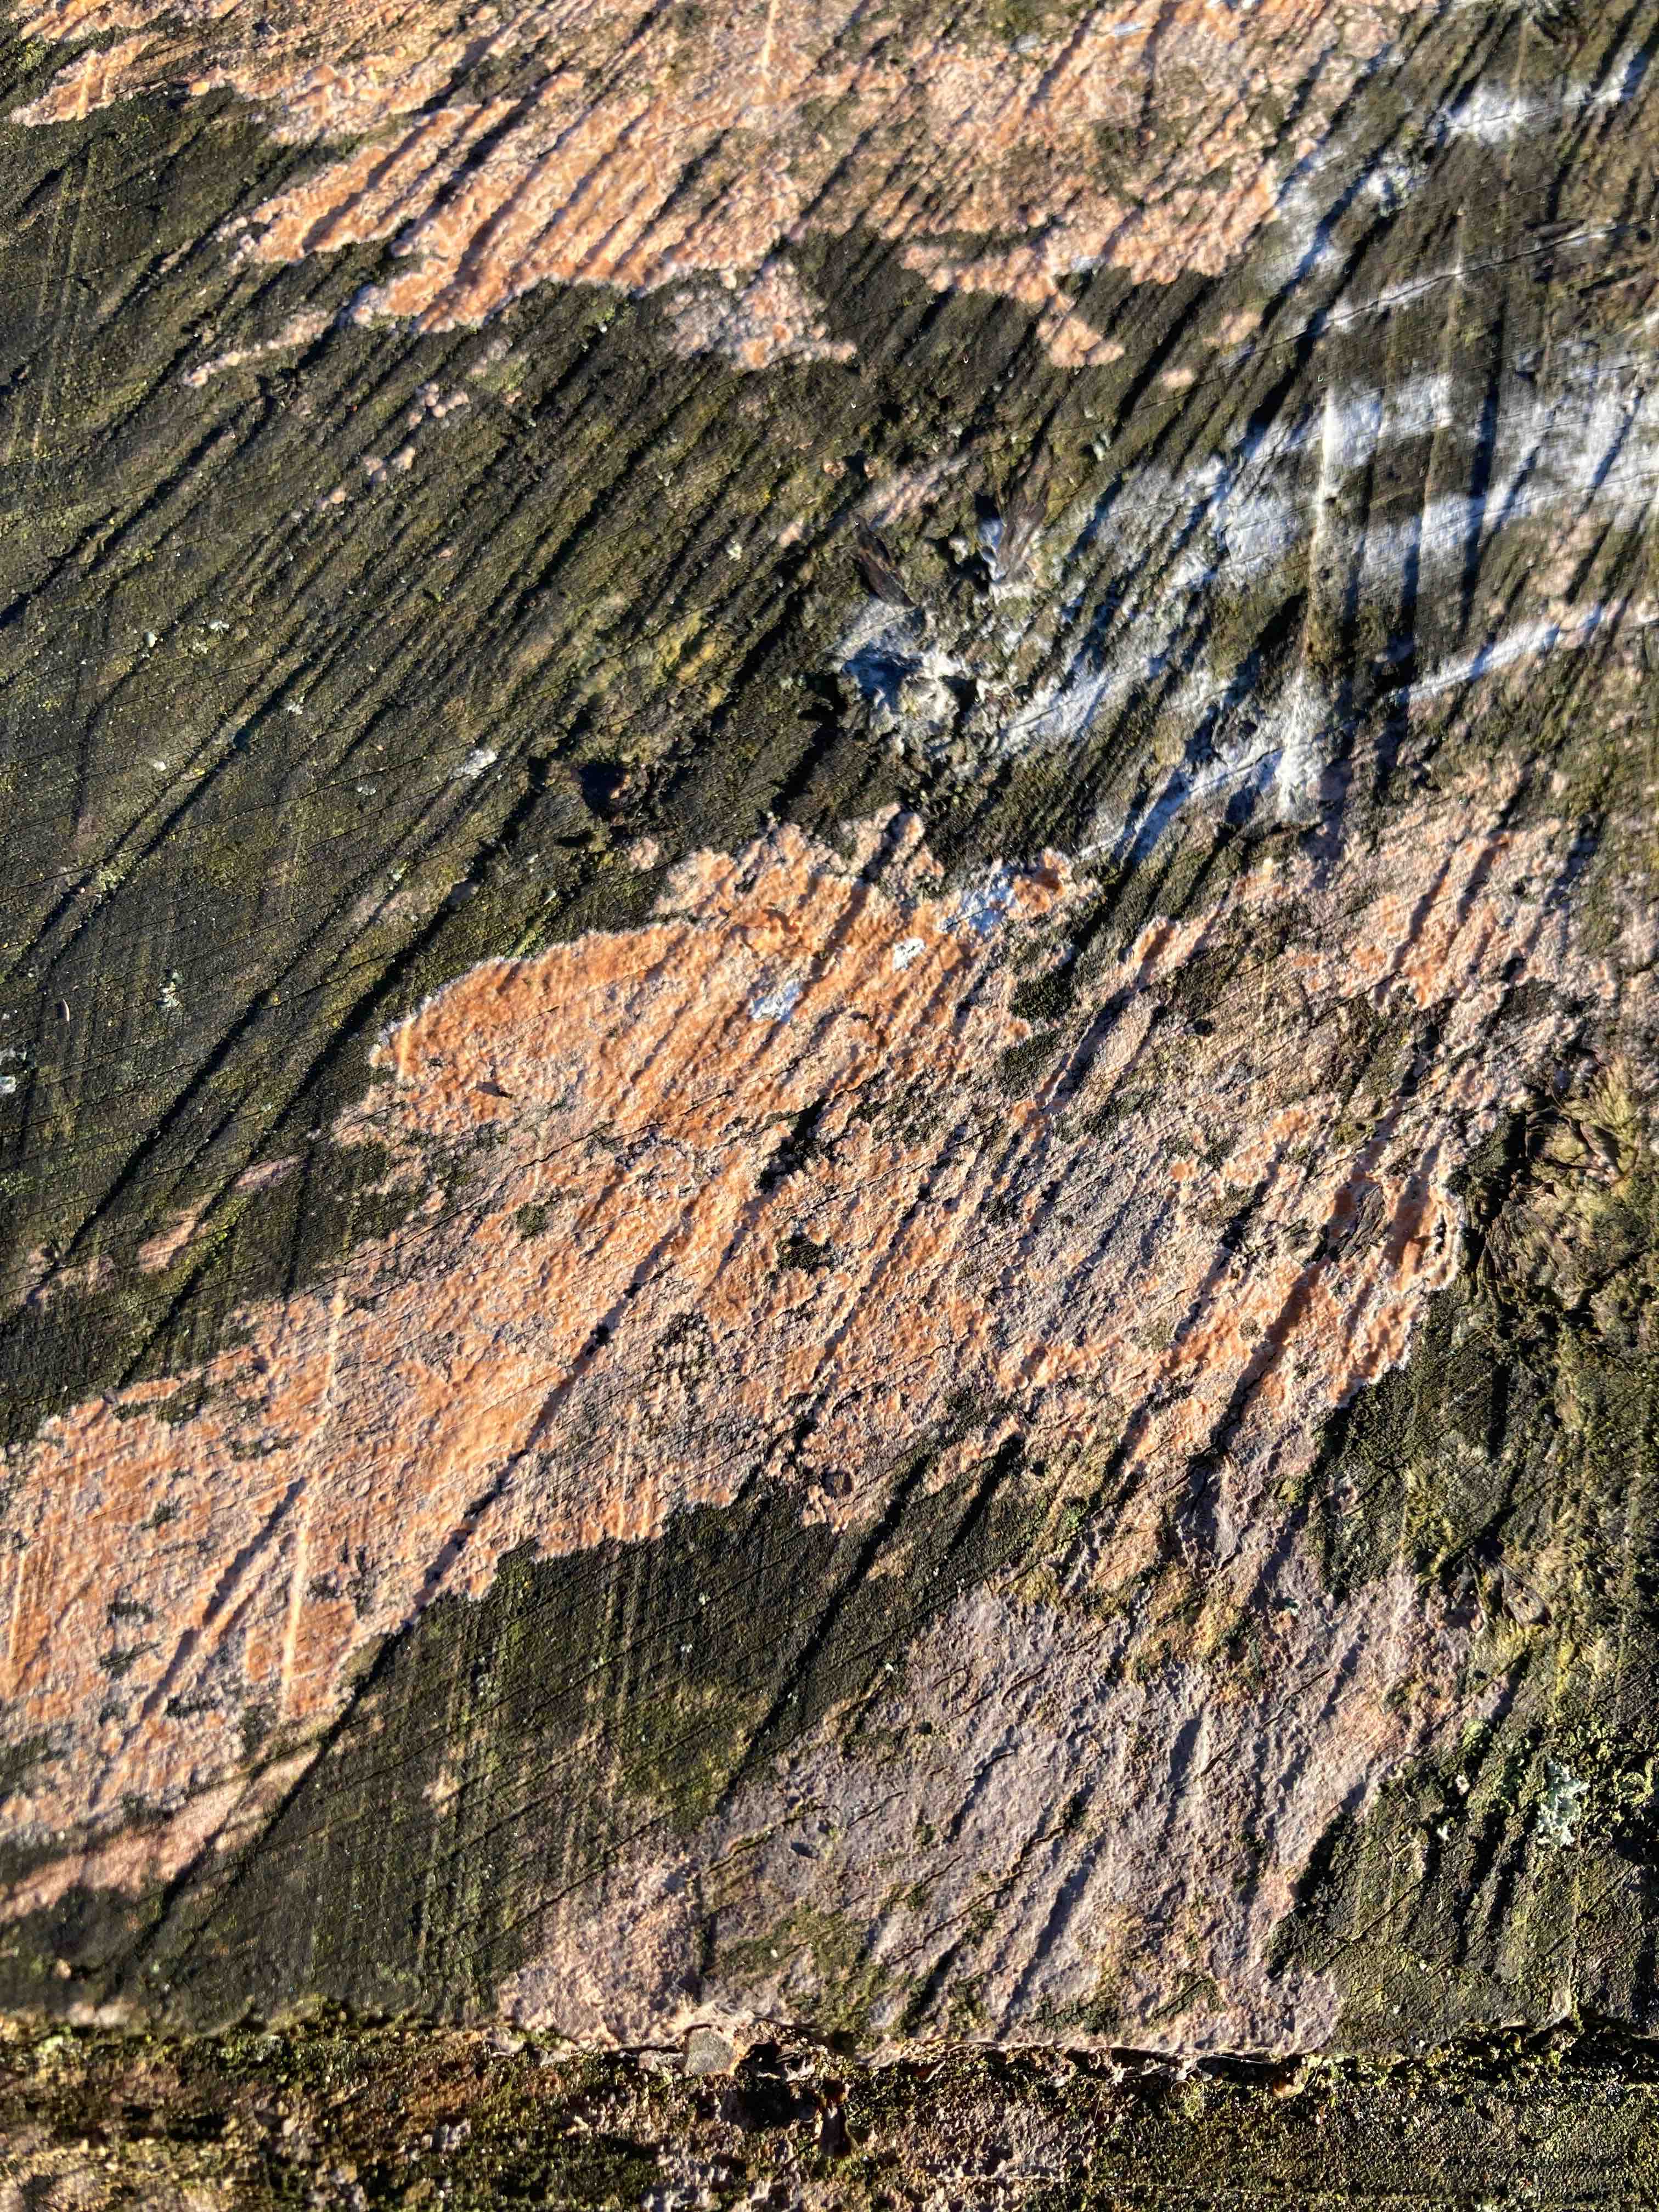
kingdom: Fungi
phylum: Basidiomycota
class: Agaricomycetes
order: Russulales
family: Peniophoraceae
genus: Peniophora
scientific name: Peniophora incarnata
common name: laksefarvet voksskind
